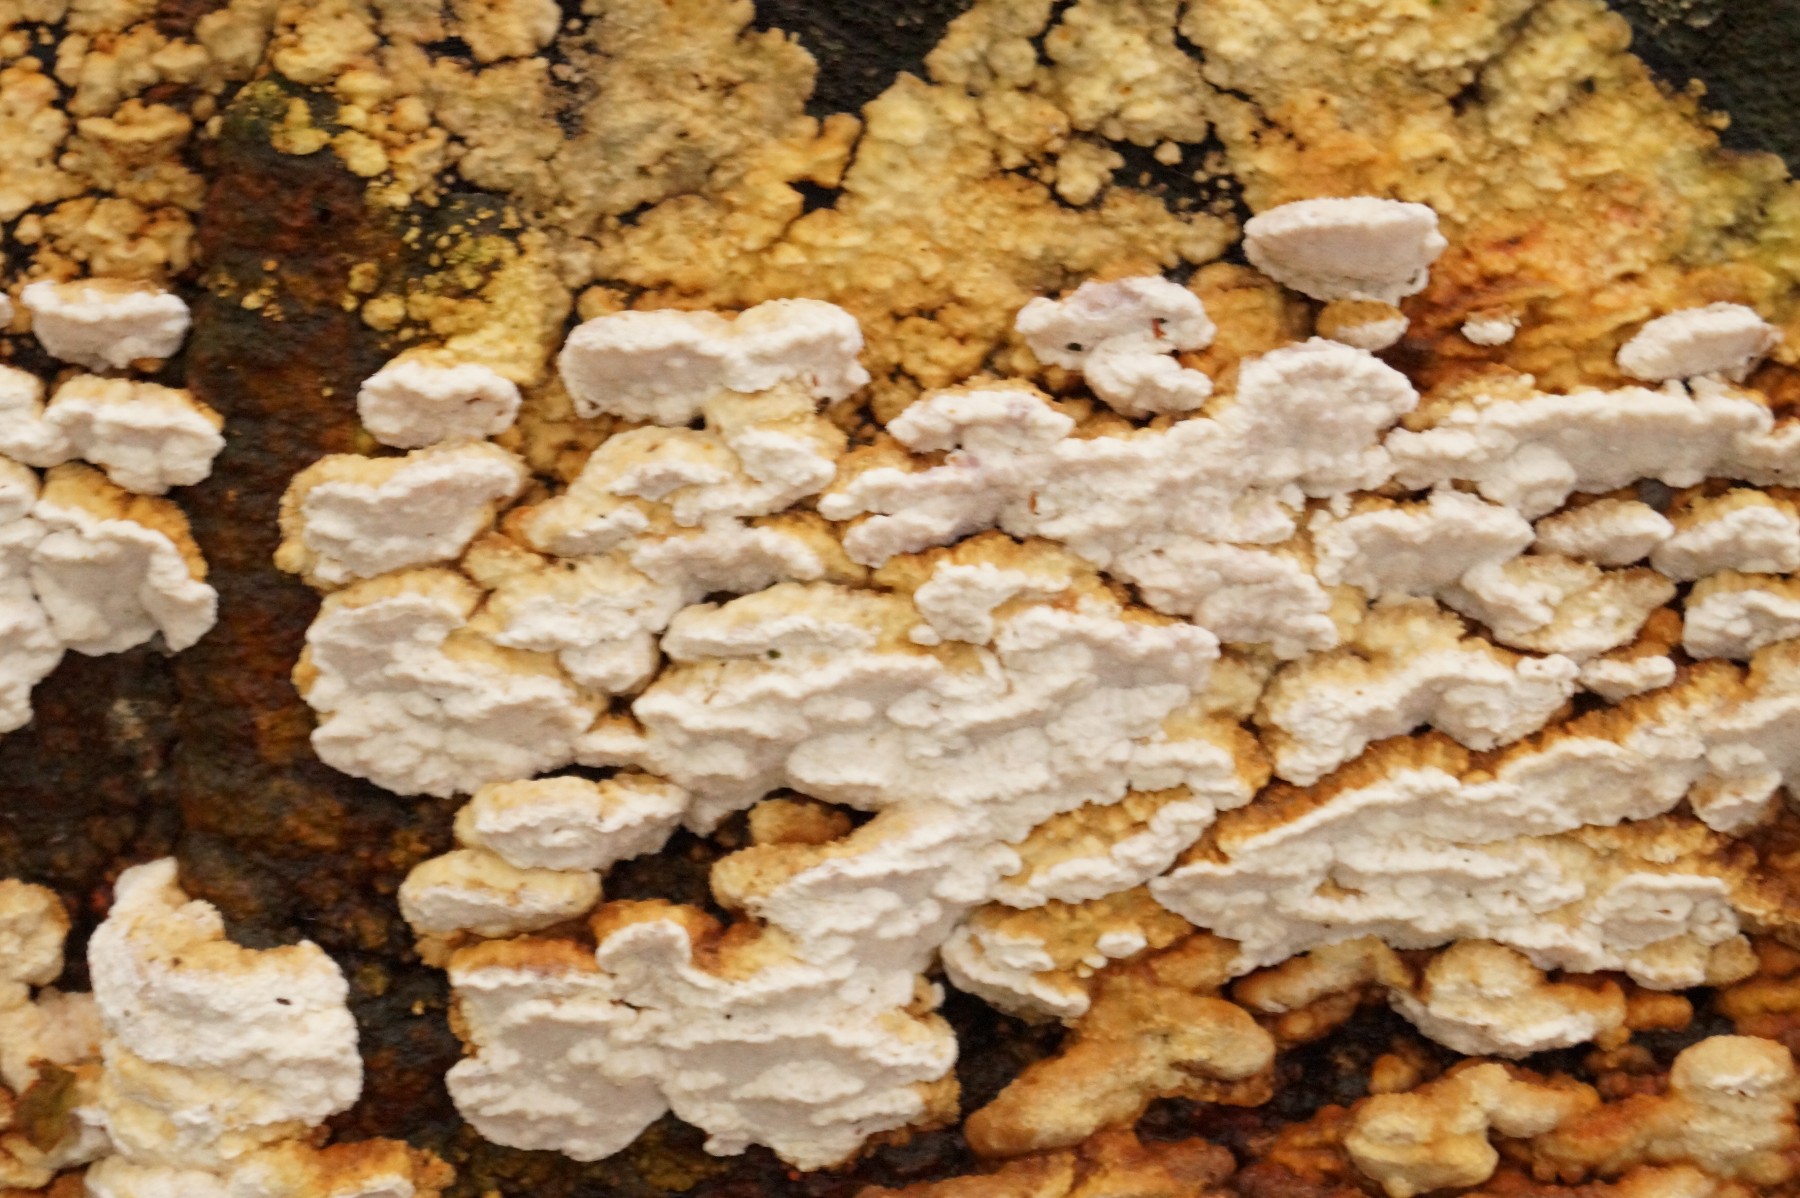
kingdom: Fungi
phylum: Basidiomycota
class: Agaricomycetes
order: Polyporales
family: Fomitopsidaceae
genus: Neoantrodia
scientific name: Neoantrodia serialis
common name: række-sejporesvamp
